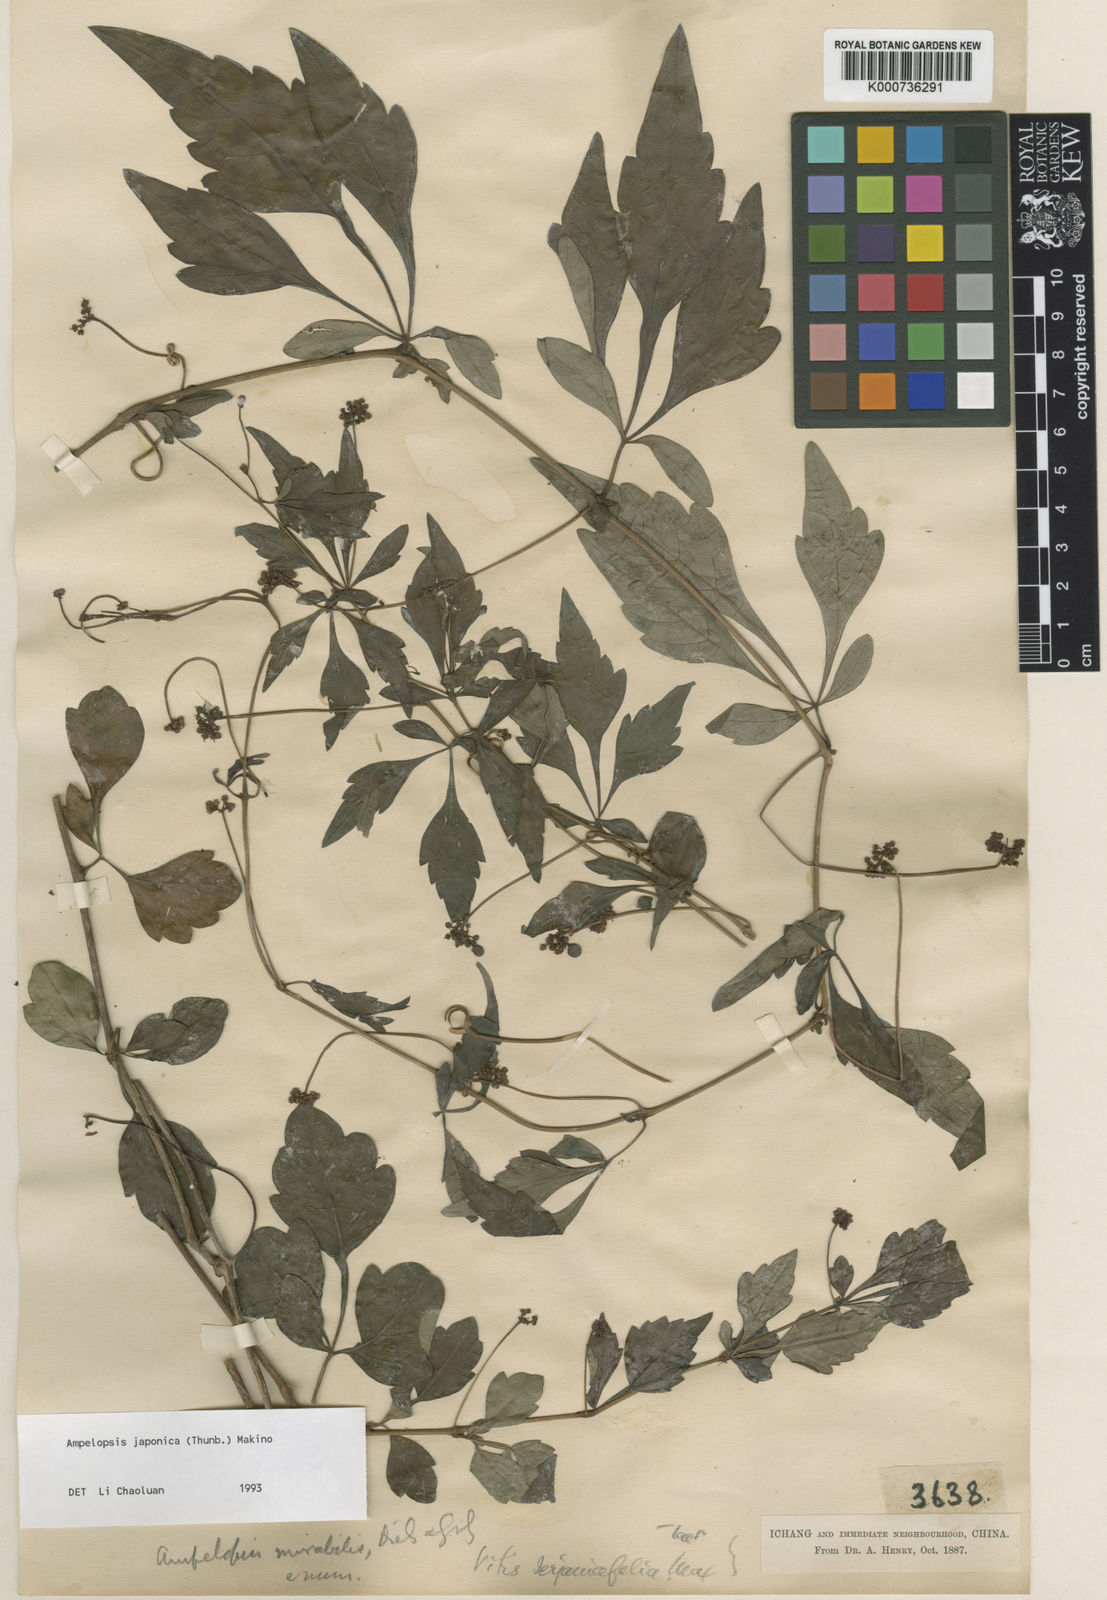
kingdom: Plantae
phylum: Tracheophyta
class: Magnoliopsida
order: Vitales
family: Vitaceae
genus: Ampelopsis
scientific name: Ampelopsis japonica
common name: Japanese peppervine
